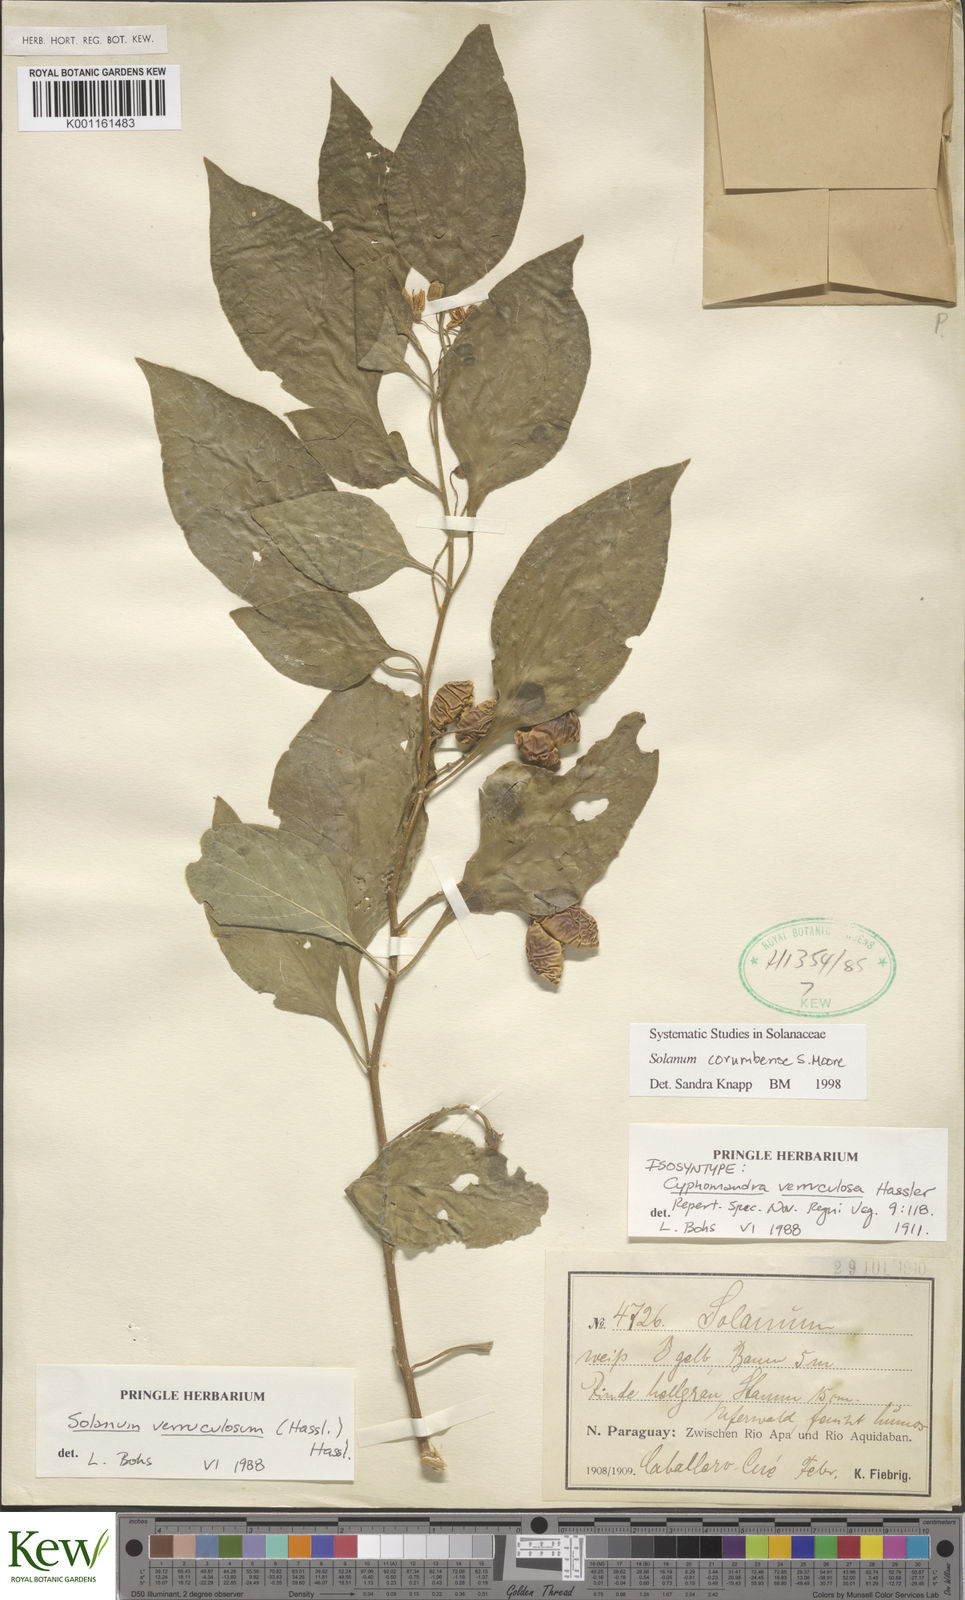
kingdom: Plantae
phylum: Tracheophyta
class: Magnoliopsida
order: Solanales
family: Solanaceae
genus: Solanum
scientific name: Solanum corumbense
